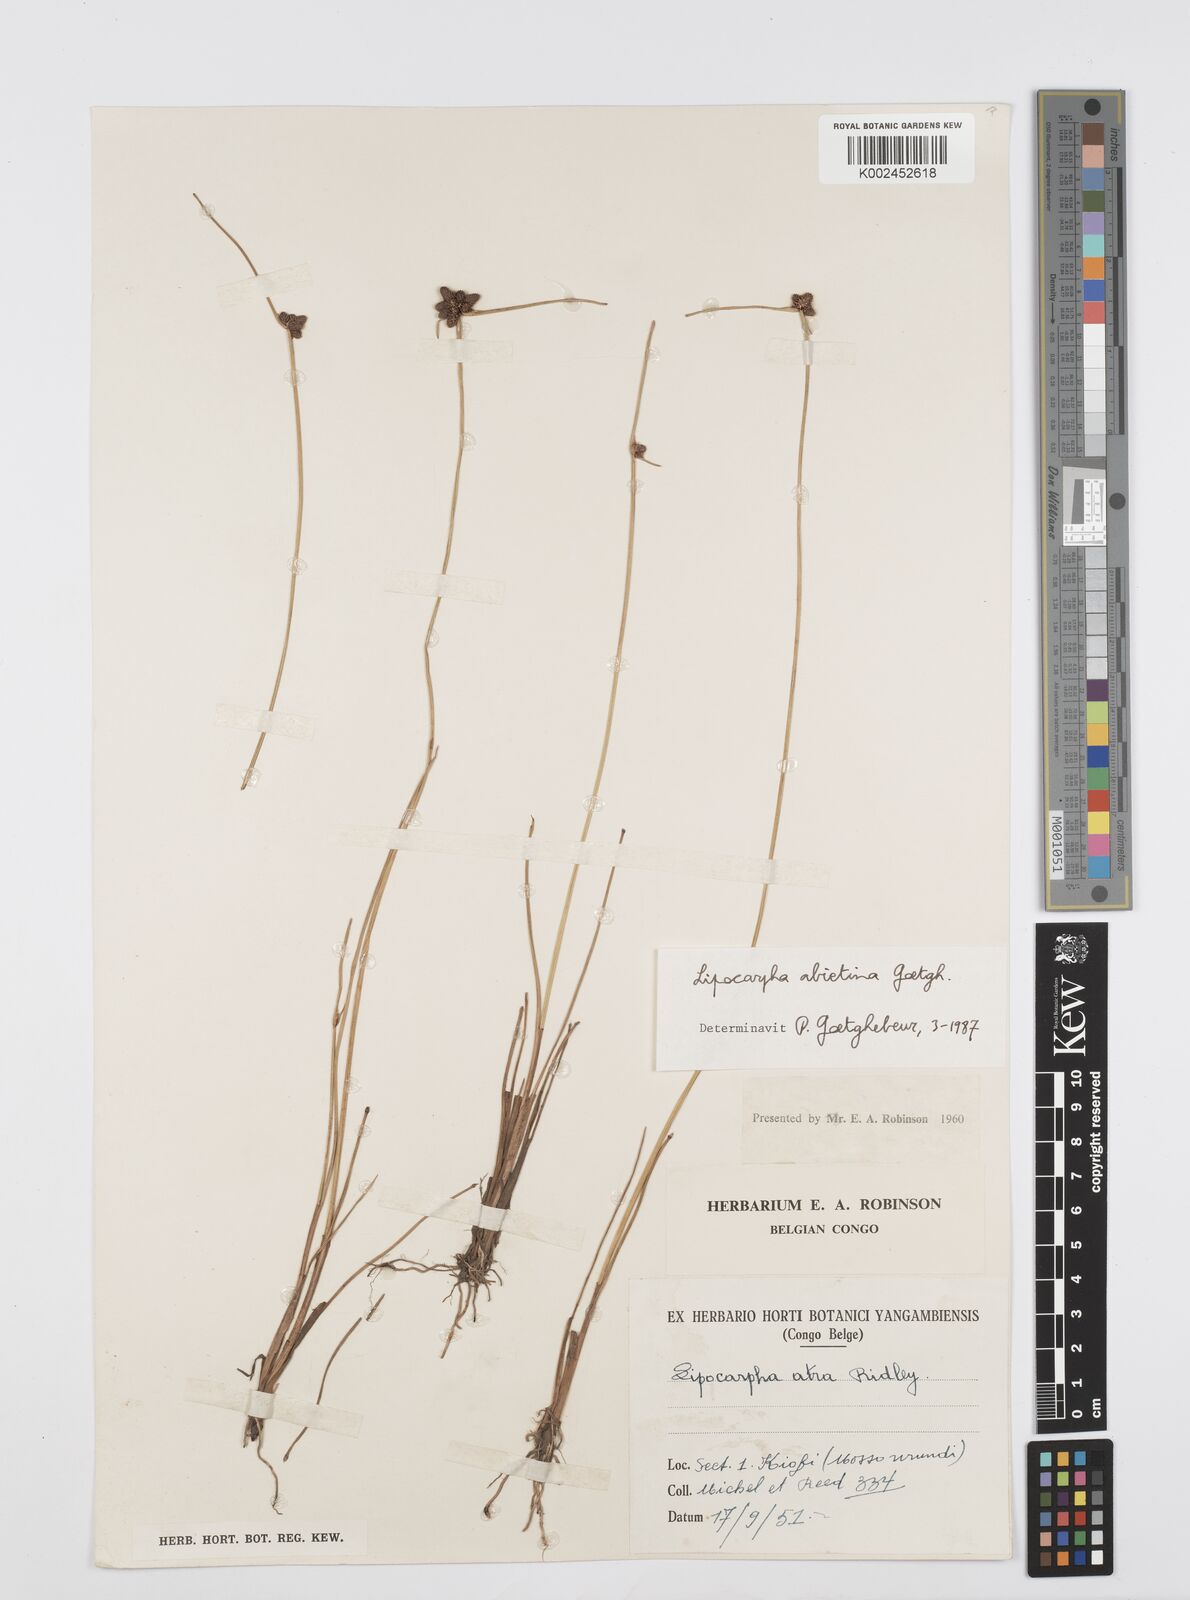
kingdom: Plantae
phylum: Tracheophyta
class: Liliopsida
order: Poales
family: Cyperaceae
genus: Cyperus
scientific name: Cyperus lipoater
